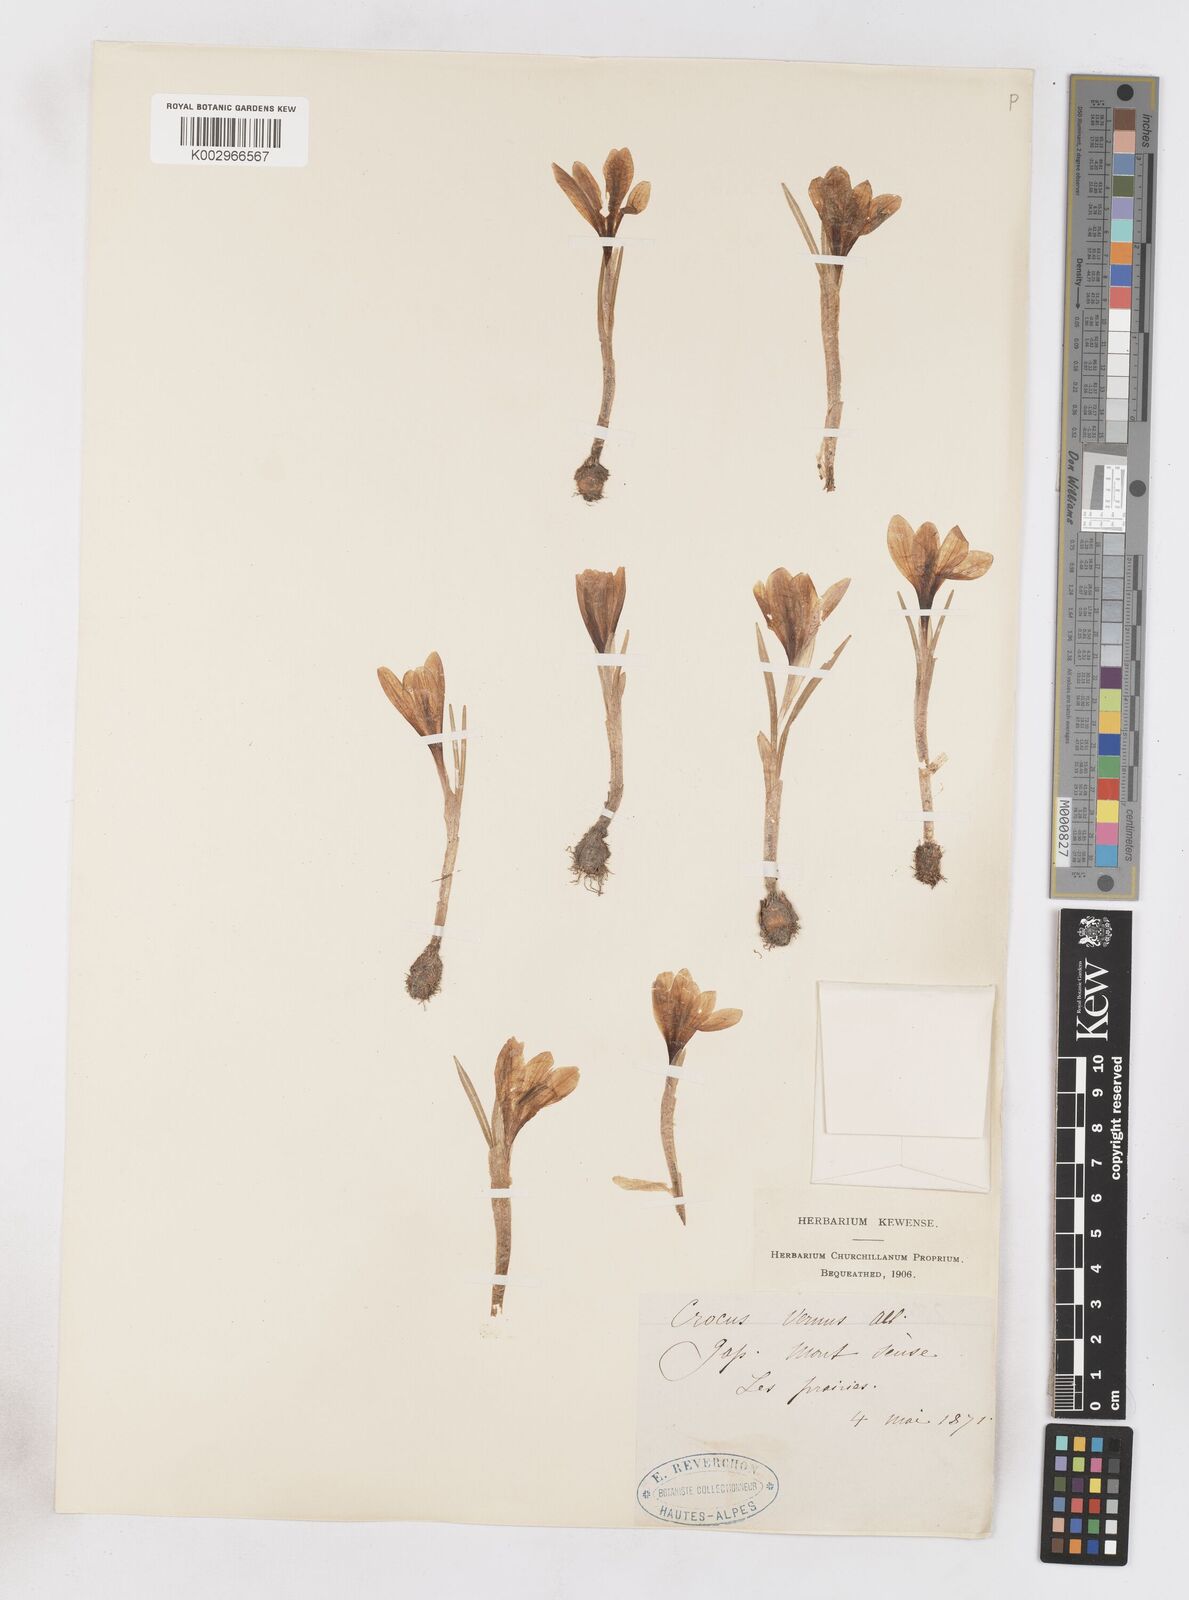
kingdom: Plantae
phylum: Tracheophyta
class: Liliopsida
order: Asparagales
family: Iridaceae
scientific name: Iridaceae
